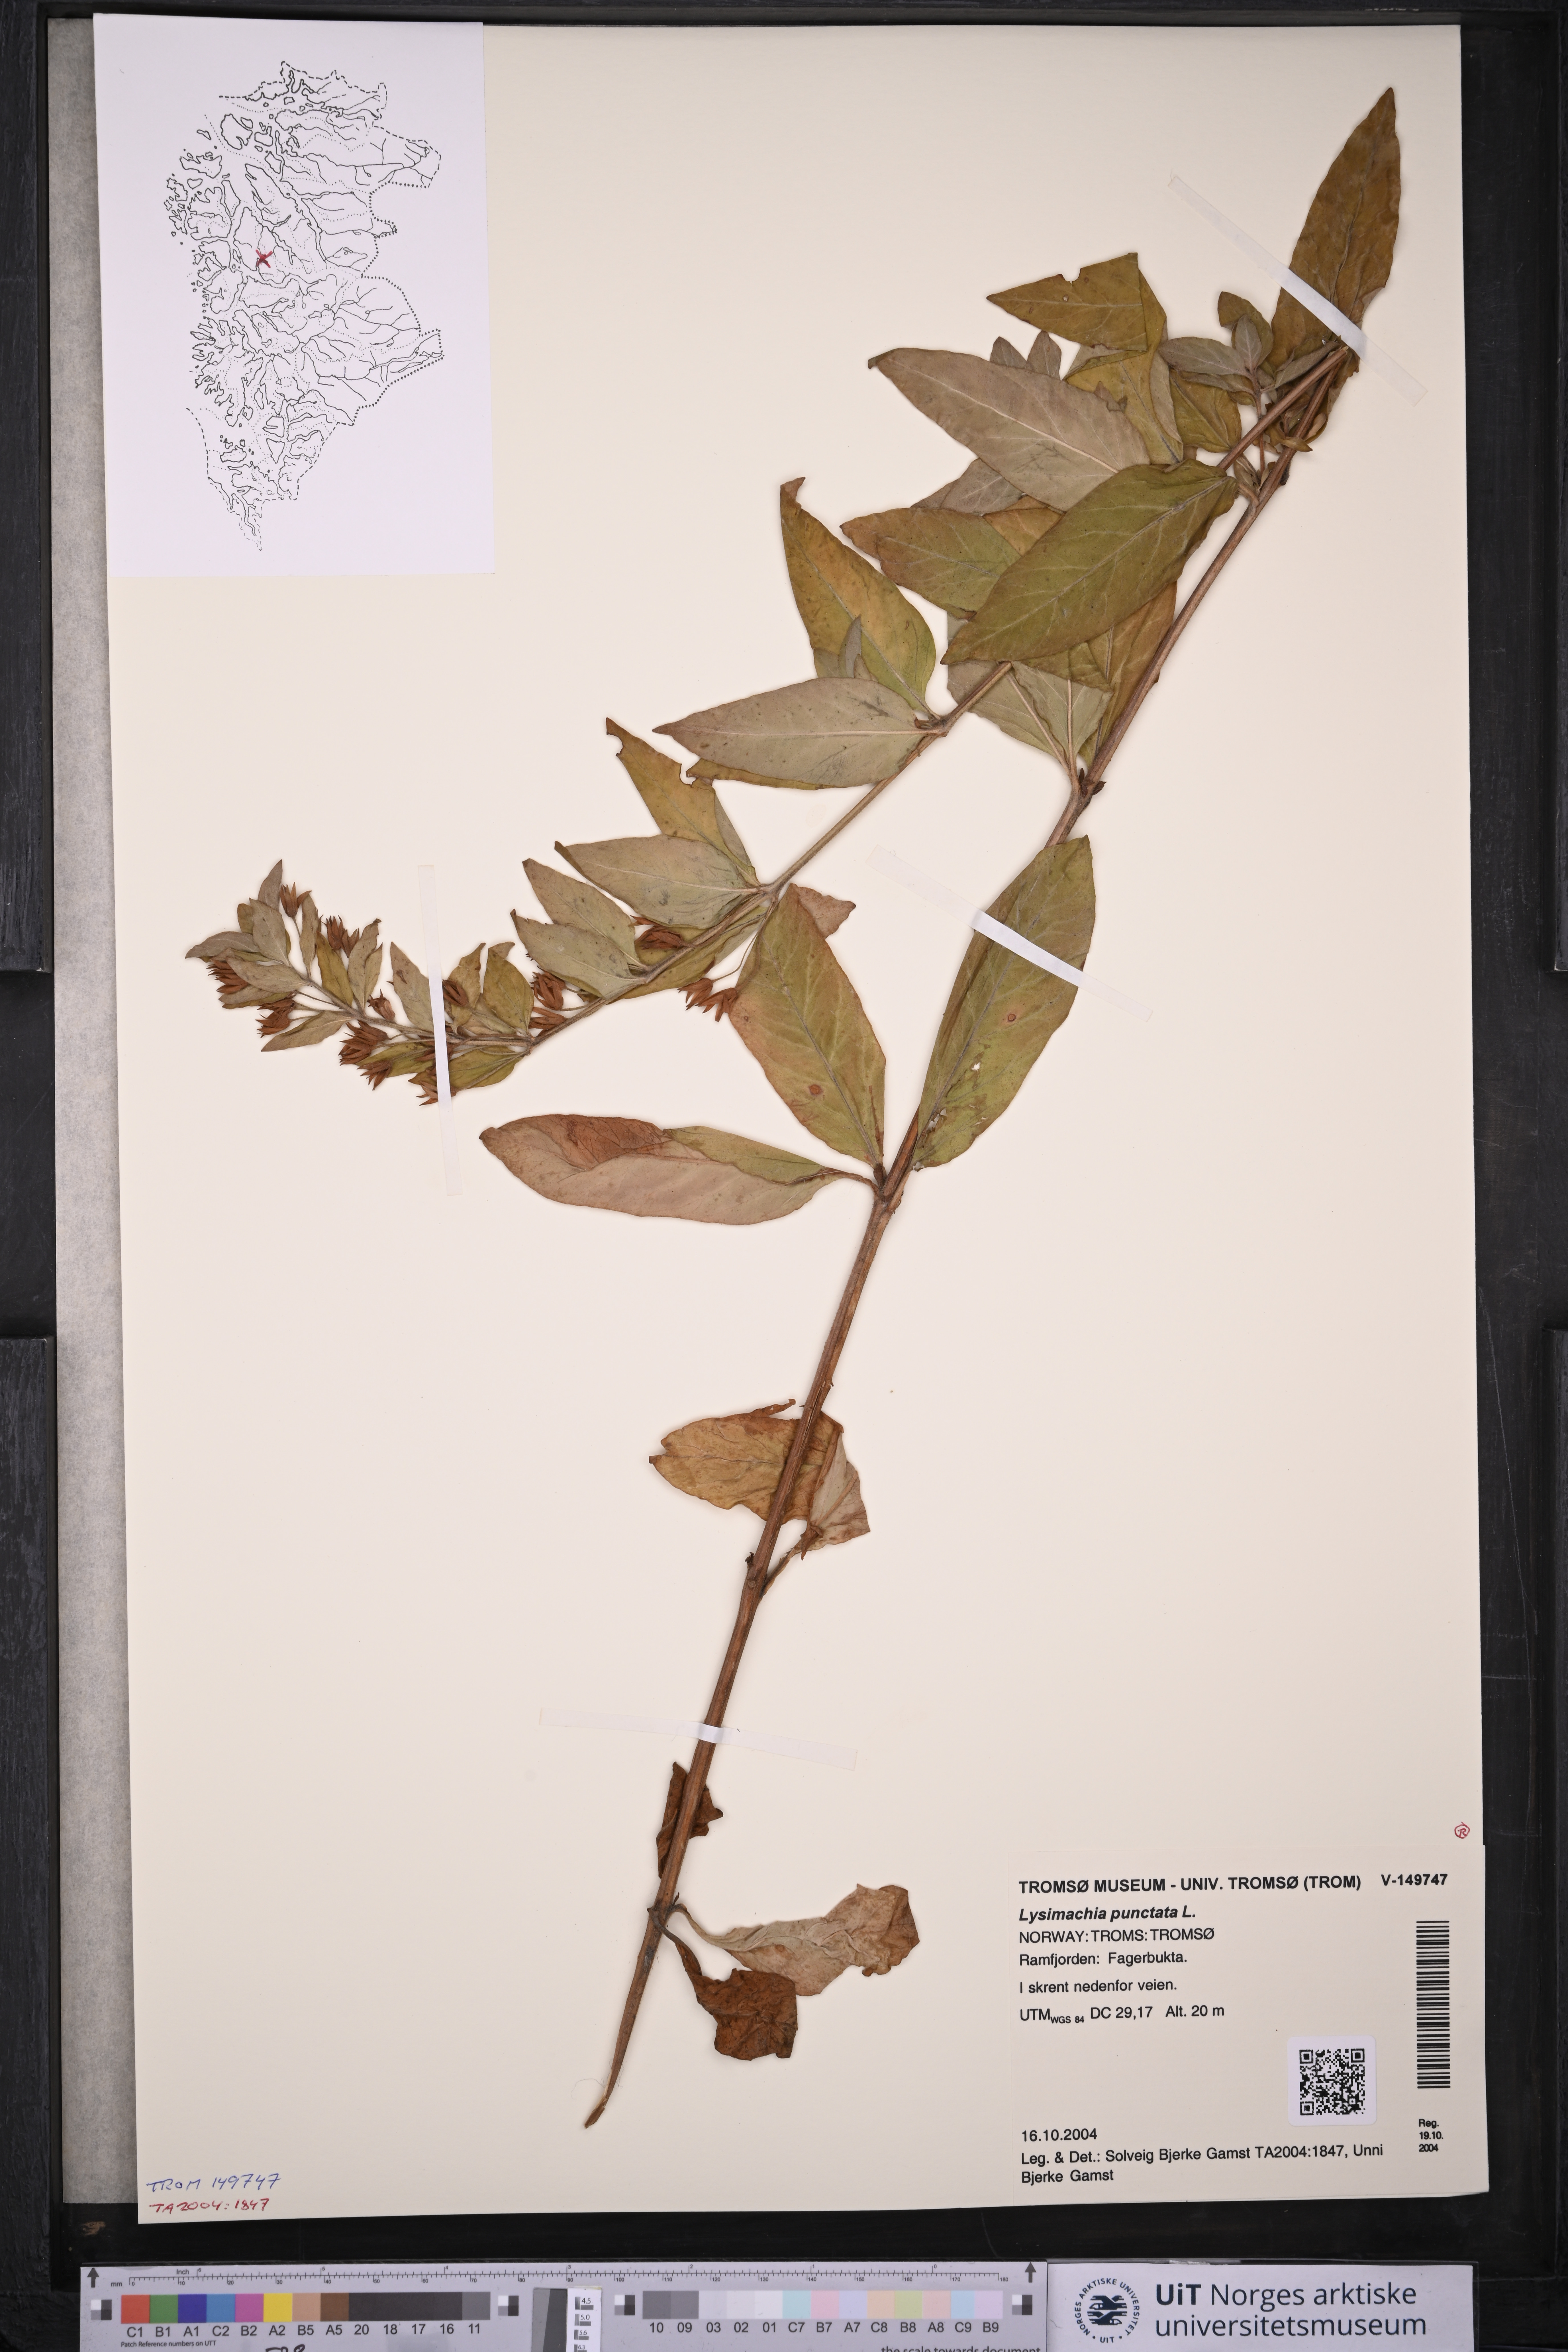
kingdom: Plantae
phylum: Tracheophyta
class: Magnoliopsida
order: Ericales
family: Primulaceae
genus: Lysimachia
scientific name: Lysimachia punctata
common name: Dotted loosestrife
